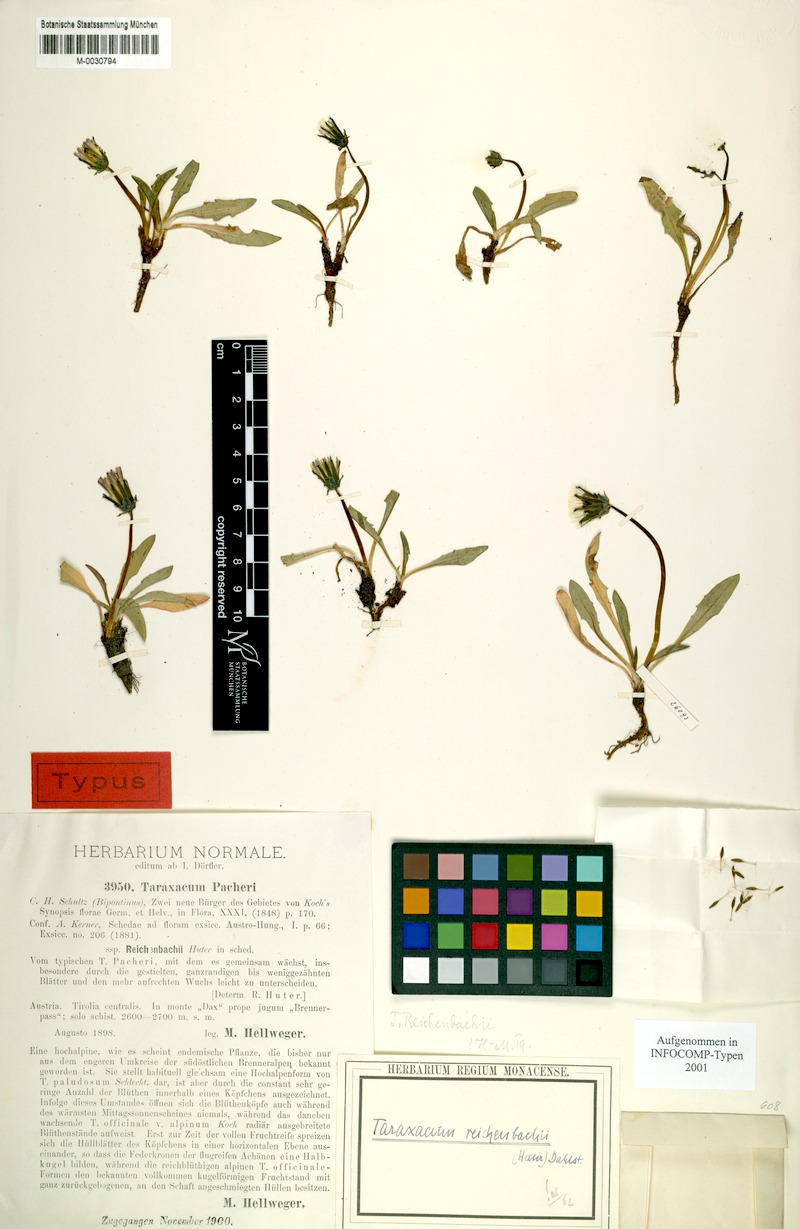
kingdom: Plantae
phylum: Tracheophyta
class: Magnoliopsida
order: Asterales
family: Asteraceae
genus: Taraxacum
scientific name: Taraxacum reichenbachii
